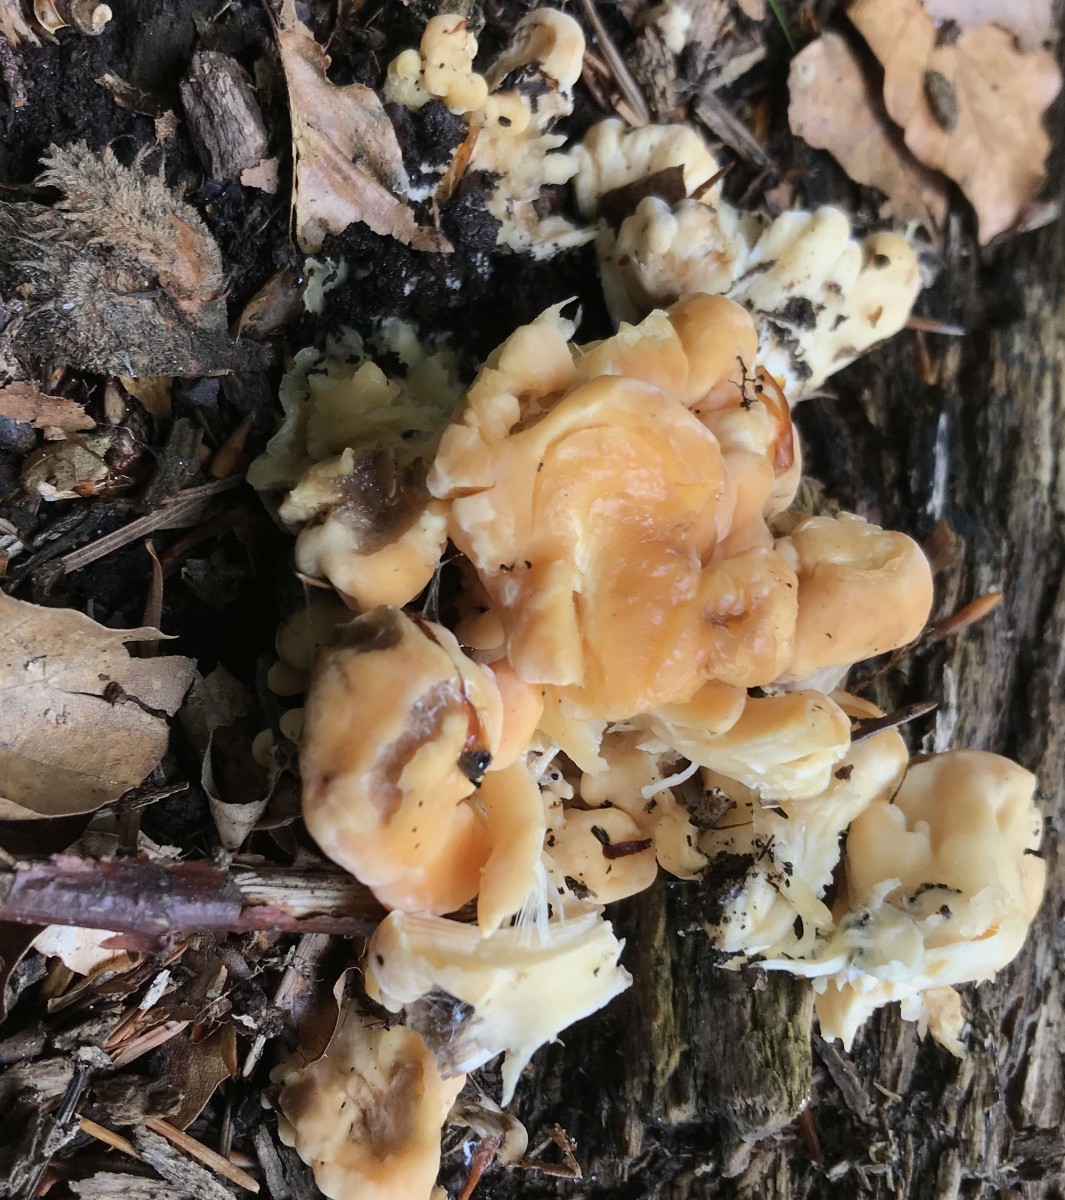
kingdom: Fungi
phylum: Basidiomycota
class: Agaricomycetes
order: Polyporales
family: Meripilaceae
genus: Meripilus
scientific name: Meripilus giganteus
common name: kæmpeporesvamp
